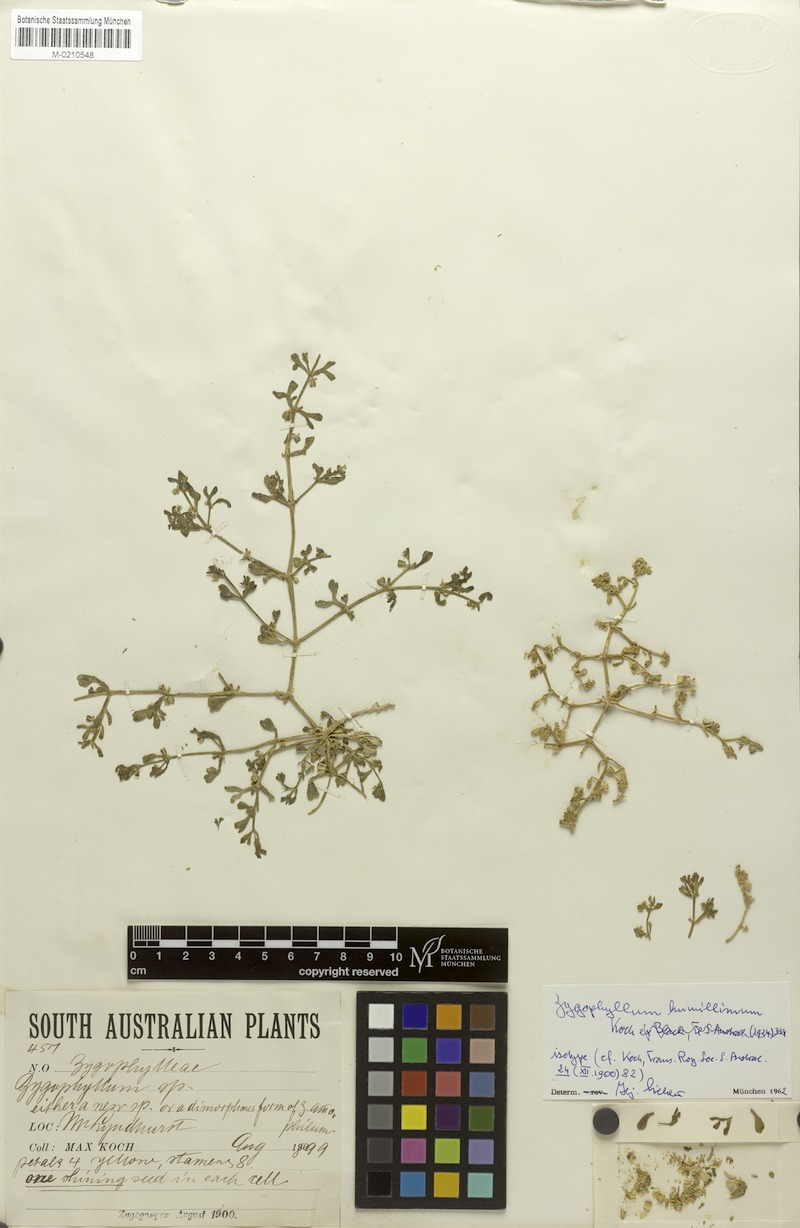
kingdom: Plantae
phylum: Tracheophyta
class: Magnoliopsida
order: Zygophyllales
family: Zygophyllaceae
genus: Roepera
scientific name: Roepera humillima
